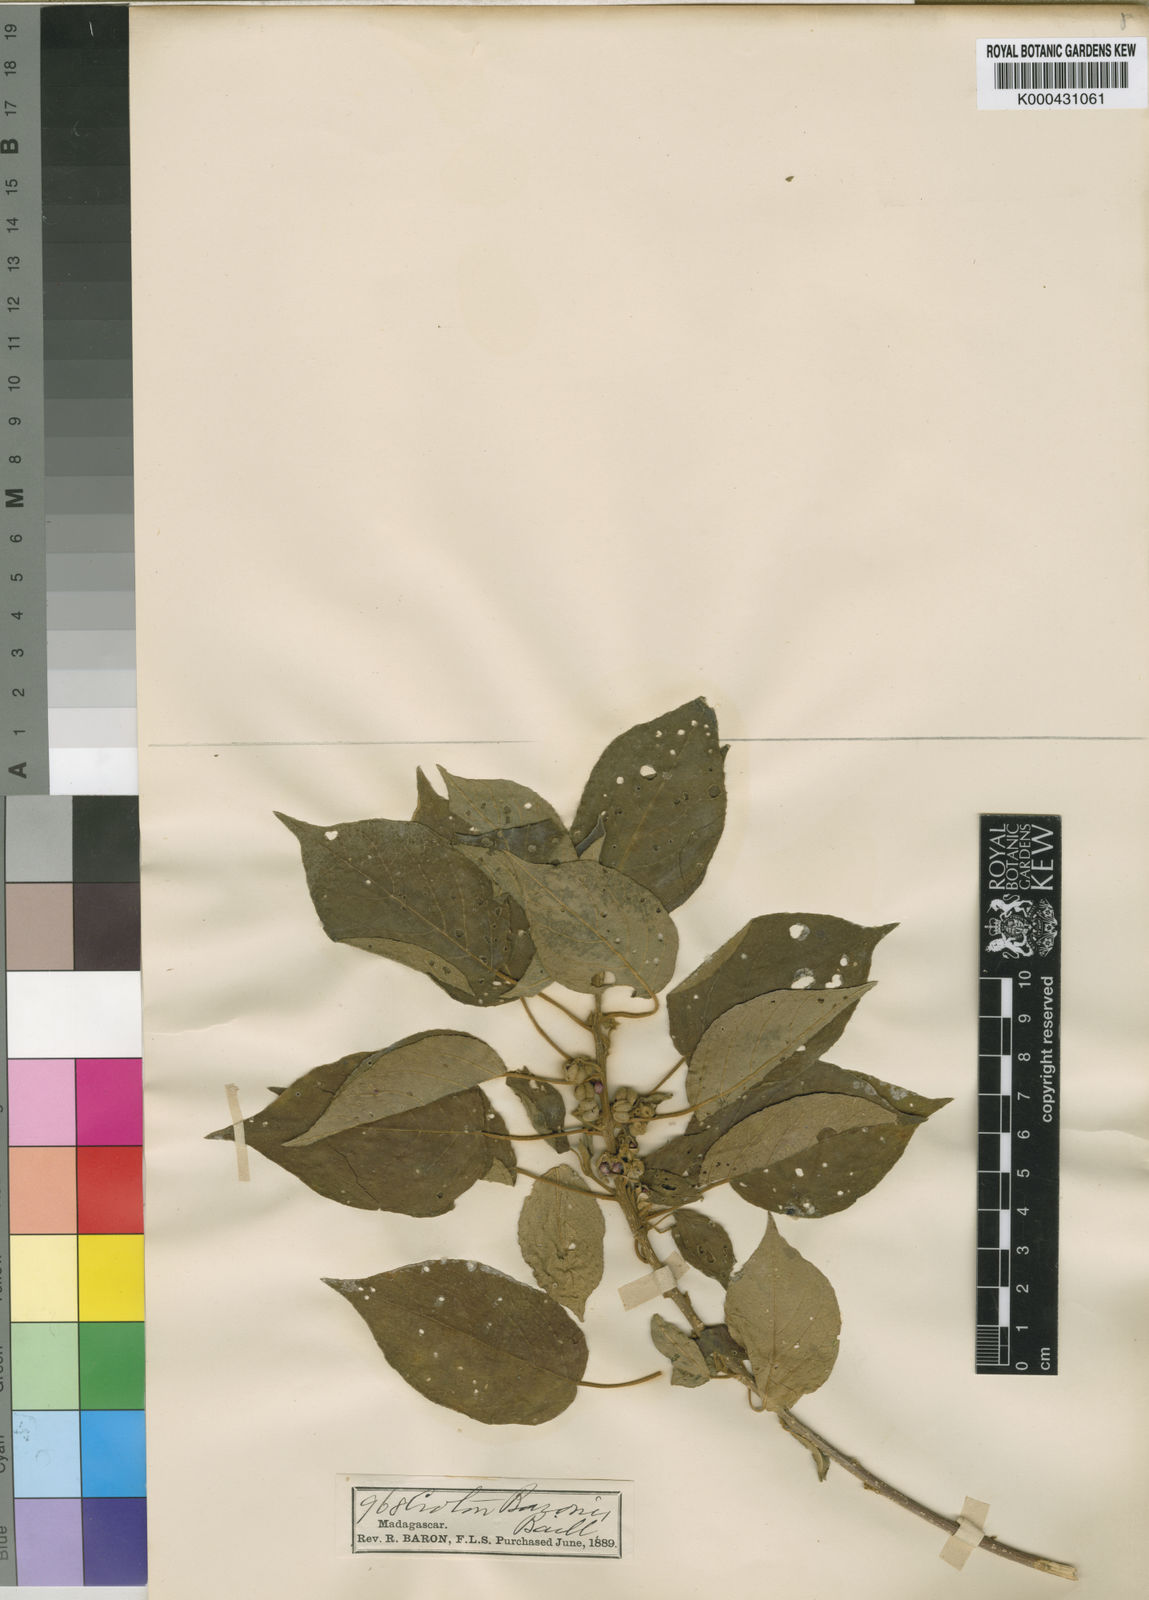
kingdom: Plantae
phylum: Tracheophyta
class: Magnoliopsida
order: Malpighiales
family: Euphorbiaceae
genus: Lobanilia
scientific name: Lobanilia ovalis
